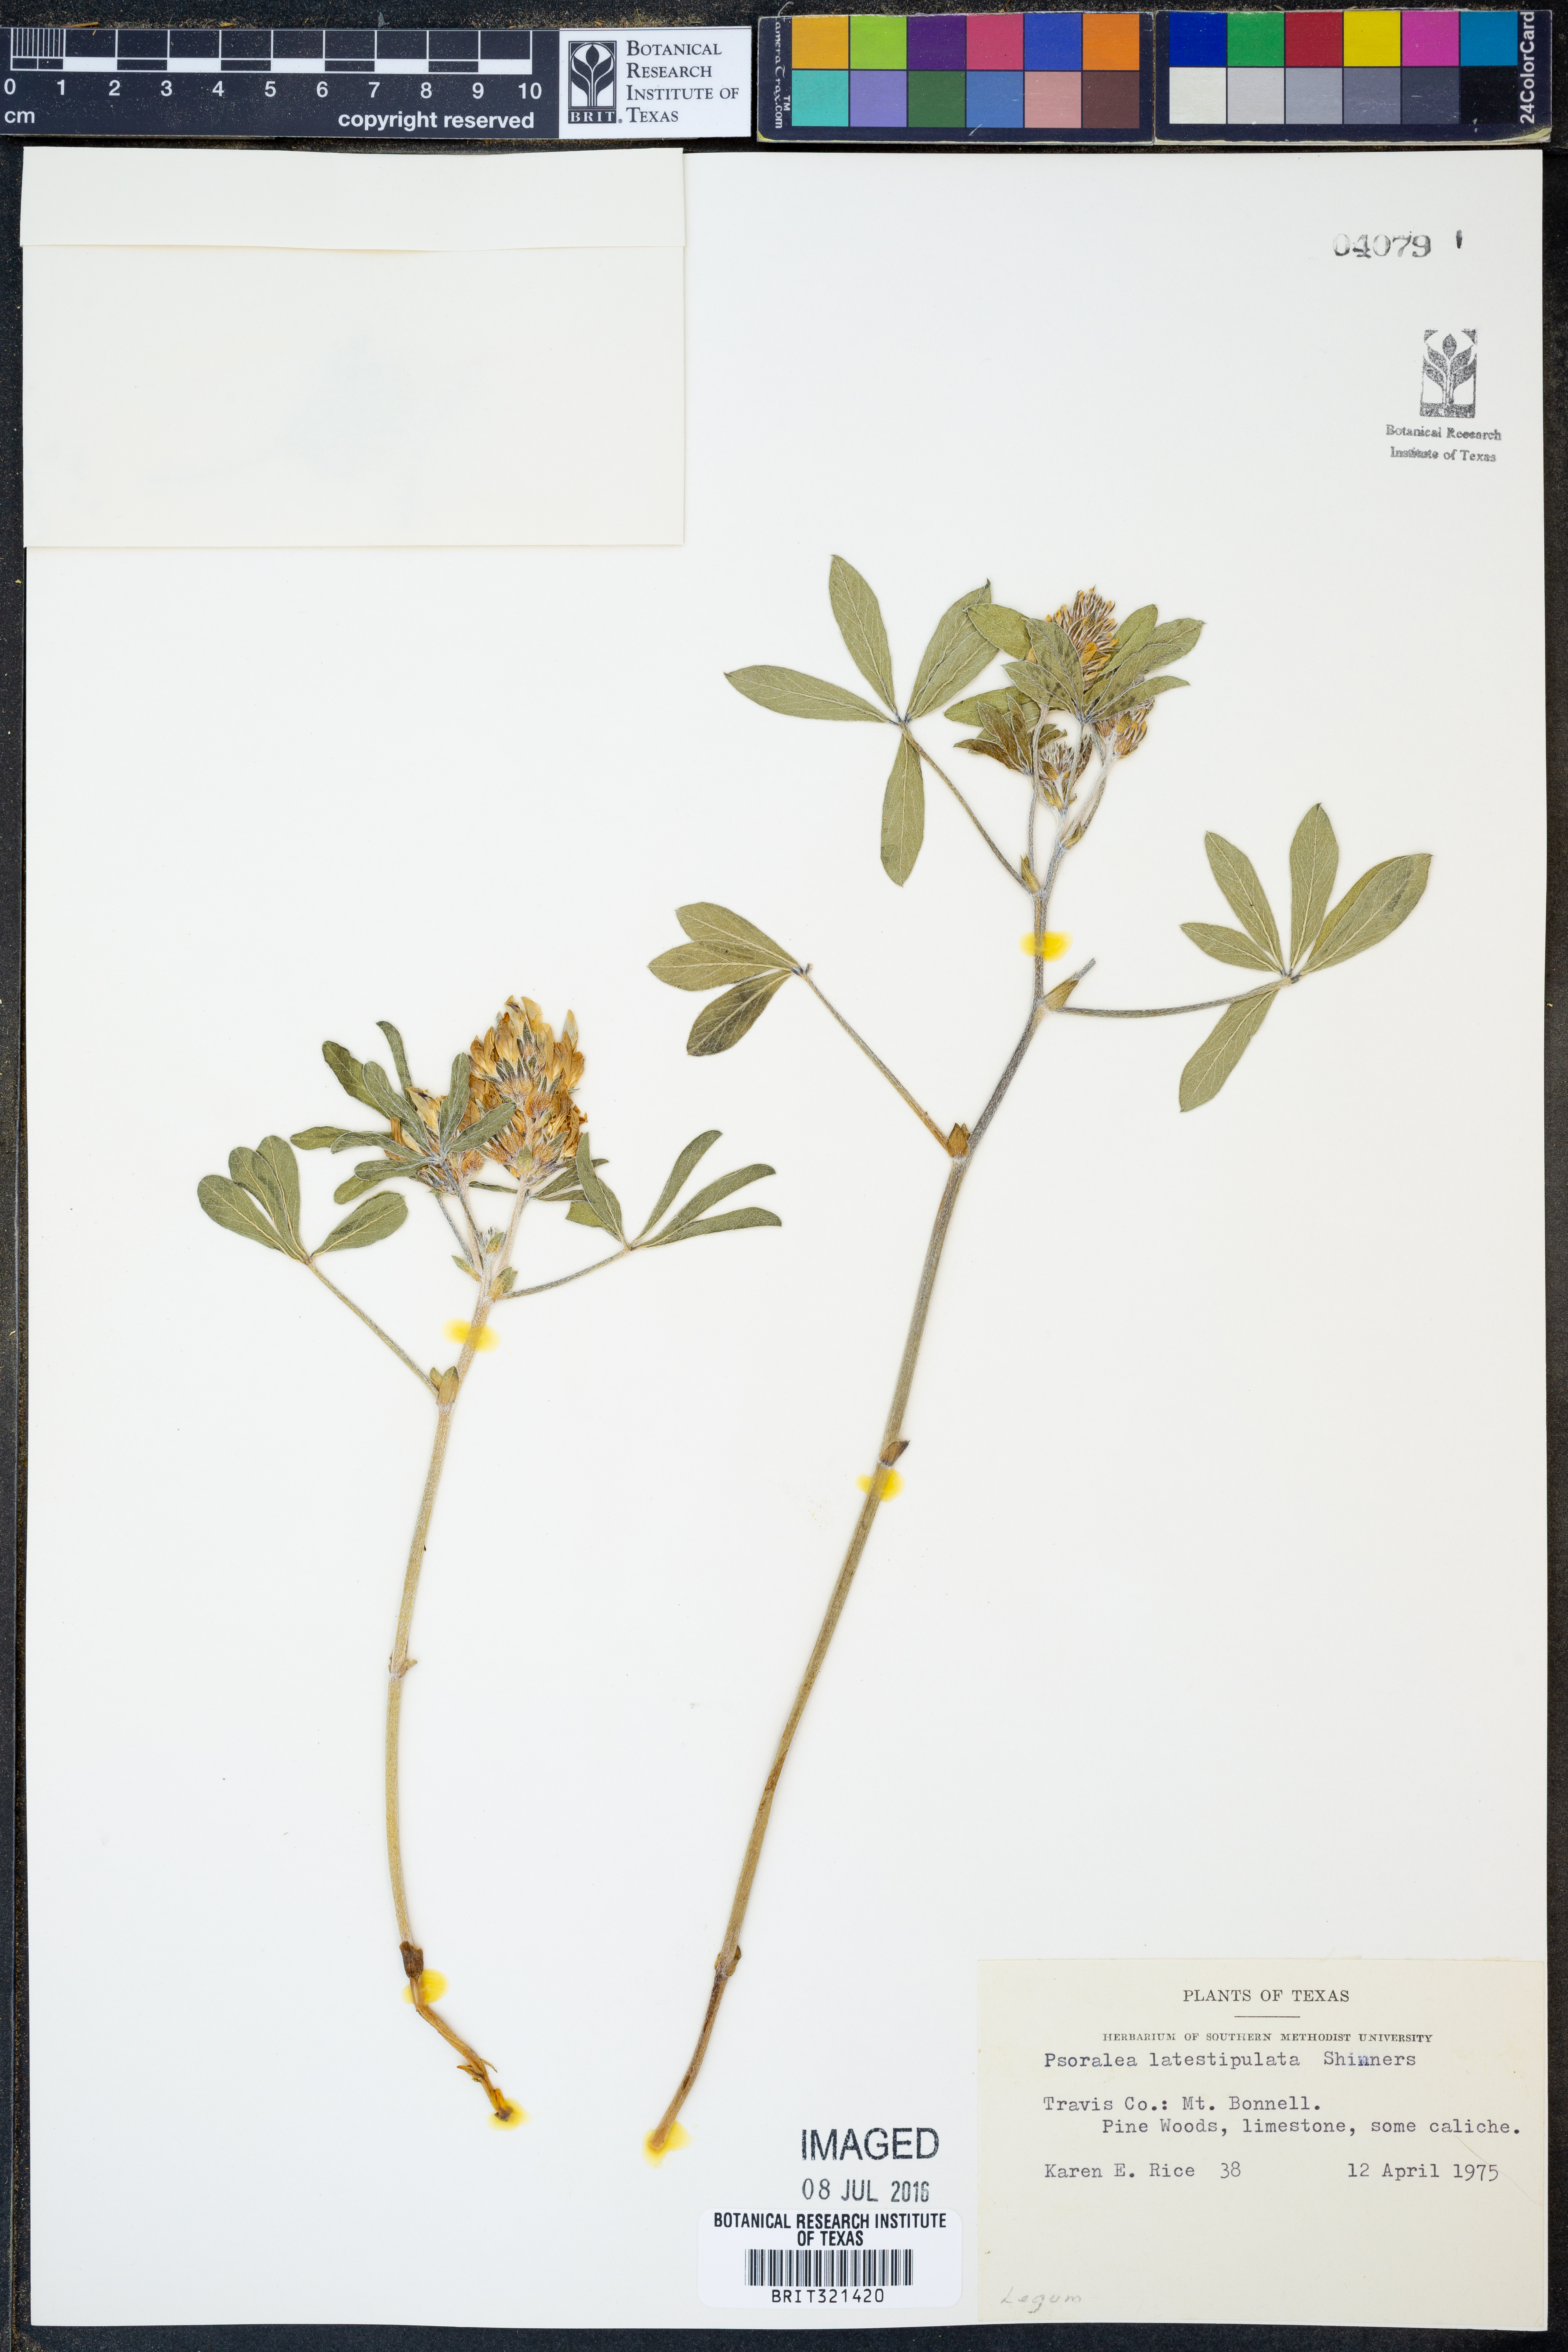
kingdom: Plantae
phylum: Tracheophyta
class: Magnoliopsida
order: Fabales
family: Fabaceae
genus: Pediomelum
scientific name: Pediomelum latestipulatum
